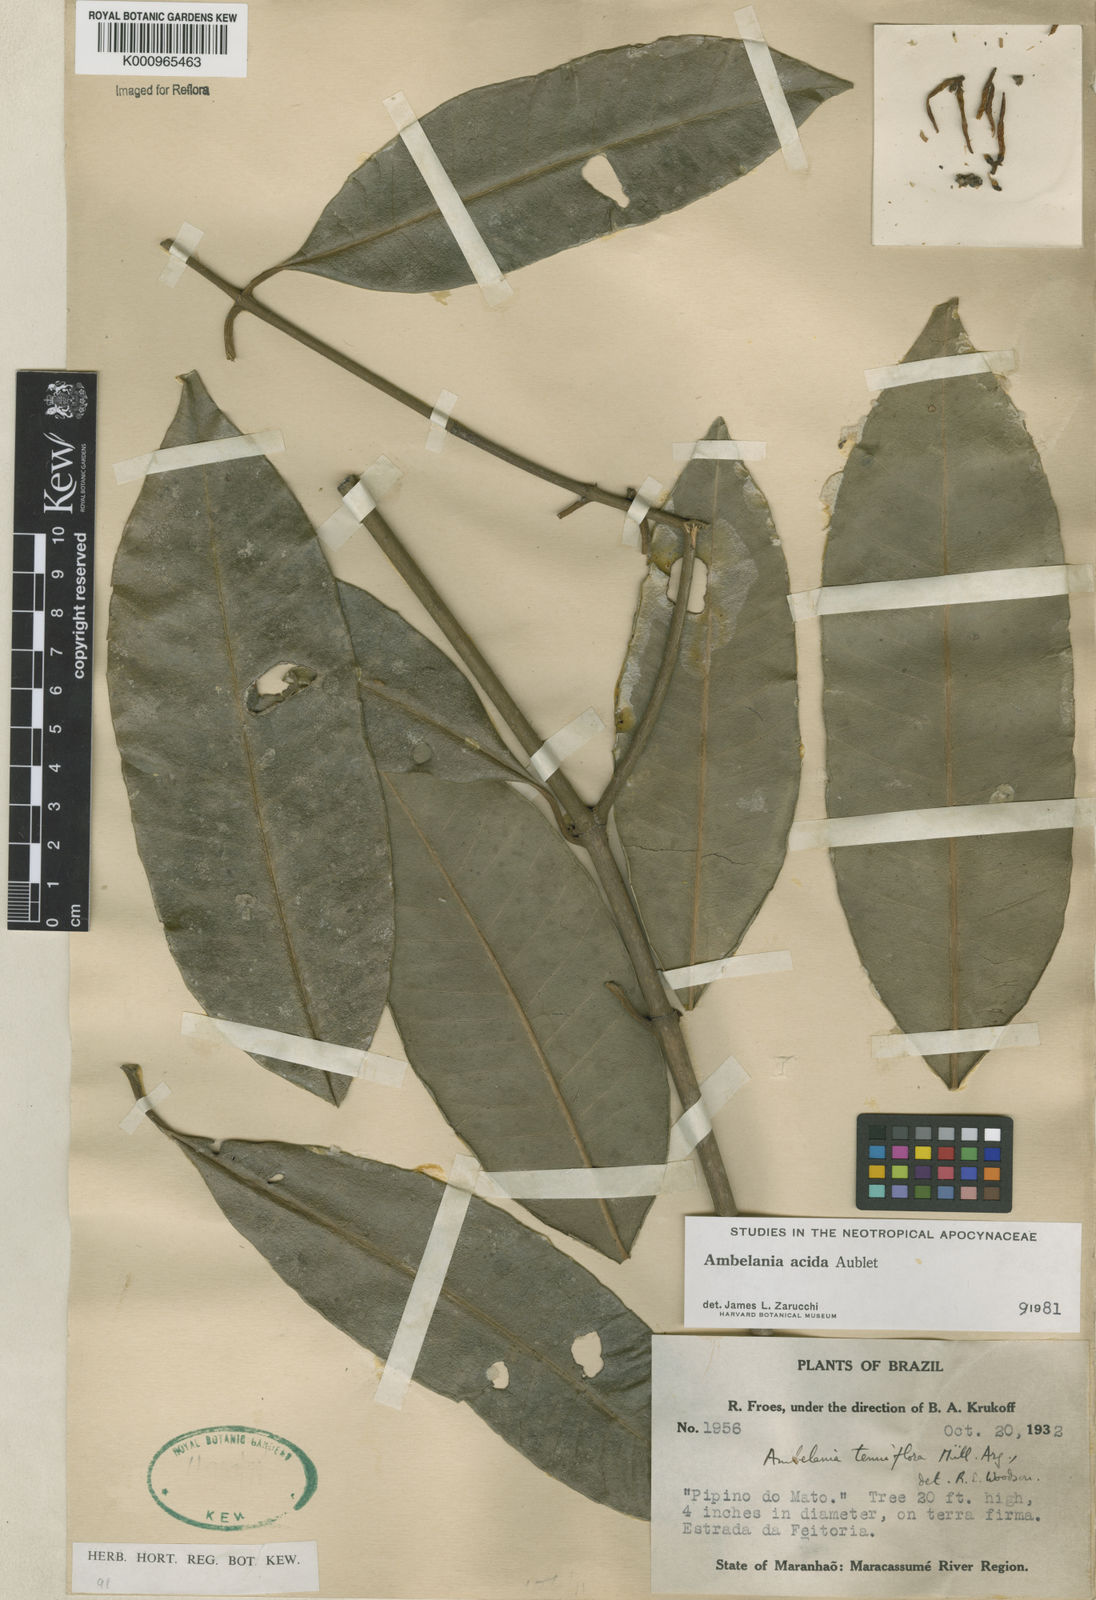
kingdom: Plantae
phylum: Tracheophyta
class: Magnoliopsida
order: Gentianales
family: Apocynaceae
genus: Ambelania
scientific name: Ambelania acida
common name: Bagasse
